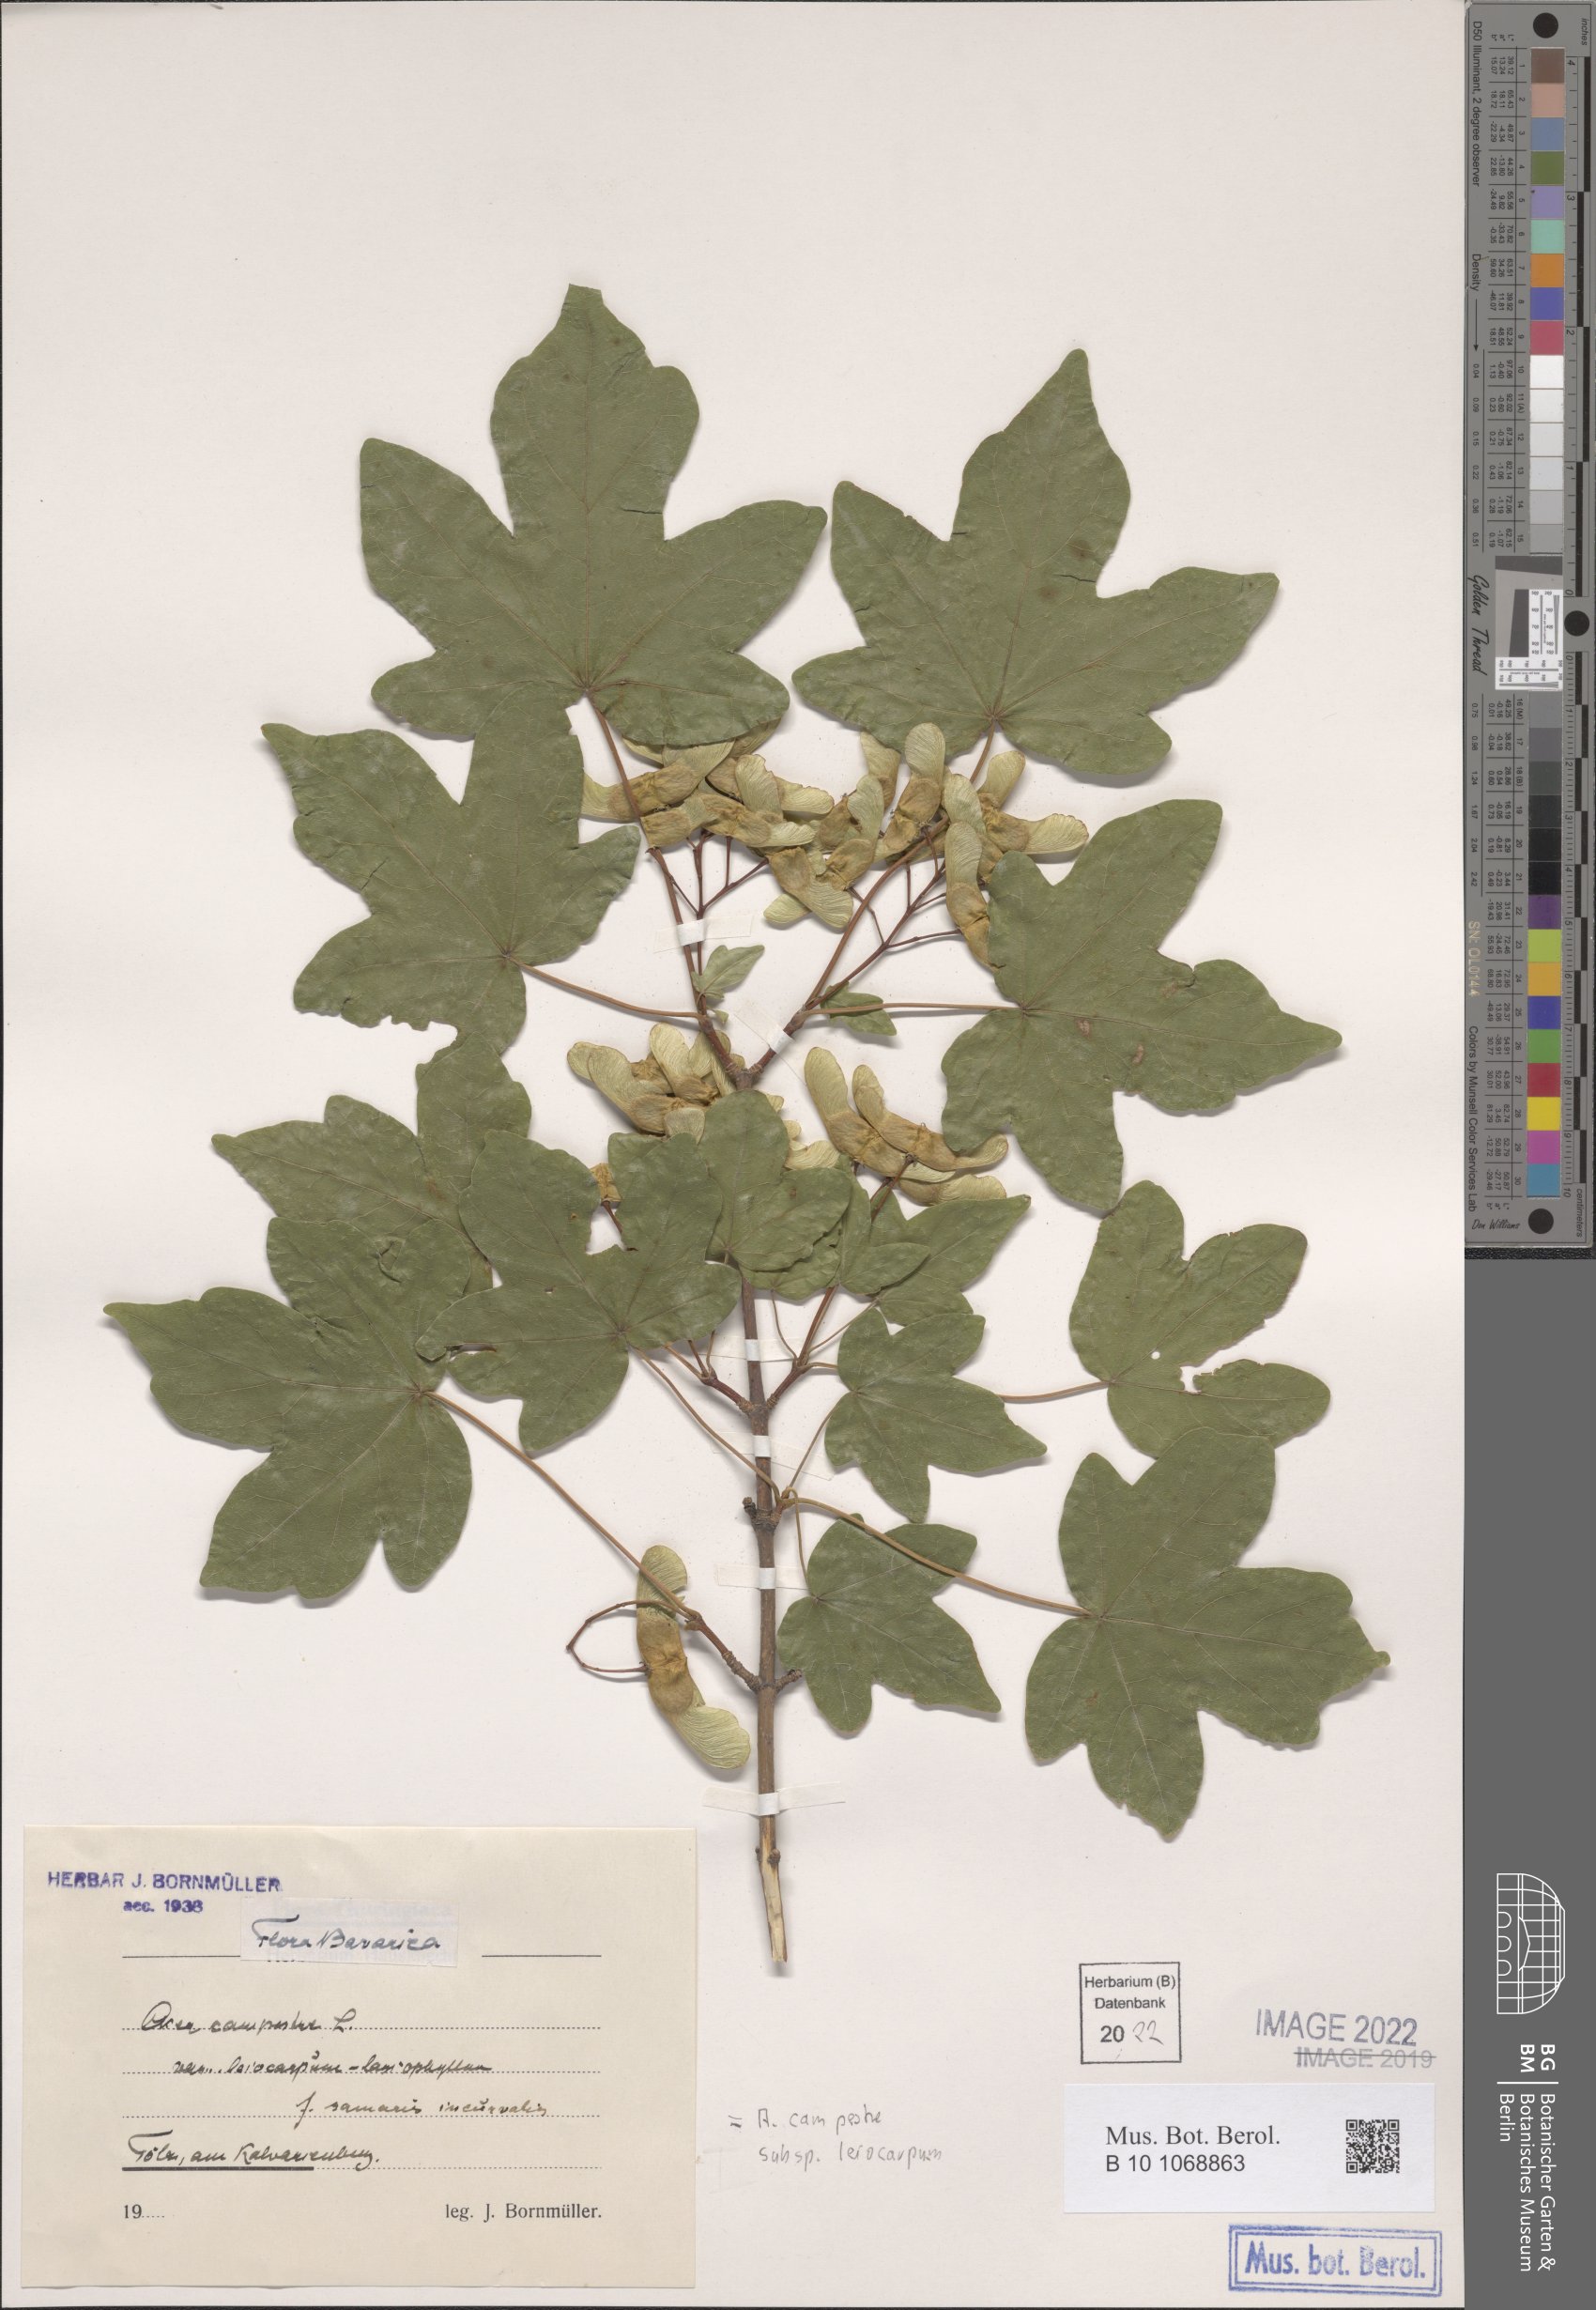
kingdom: Plantae
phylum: Tracheophyta
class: Magnoliopsida
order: Sapindales
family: Sapindaceae
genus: Acer
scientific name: Acer campestre
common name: Field maple
